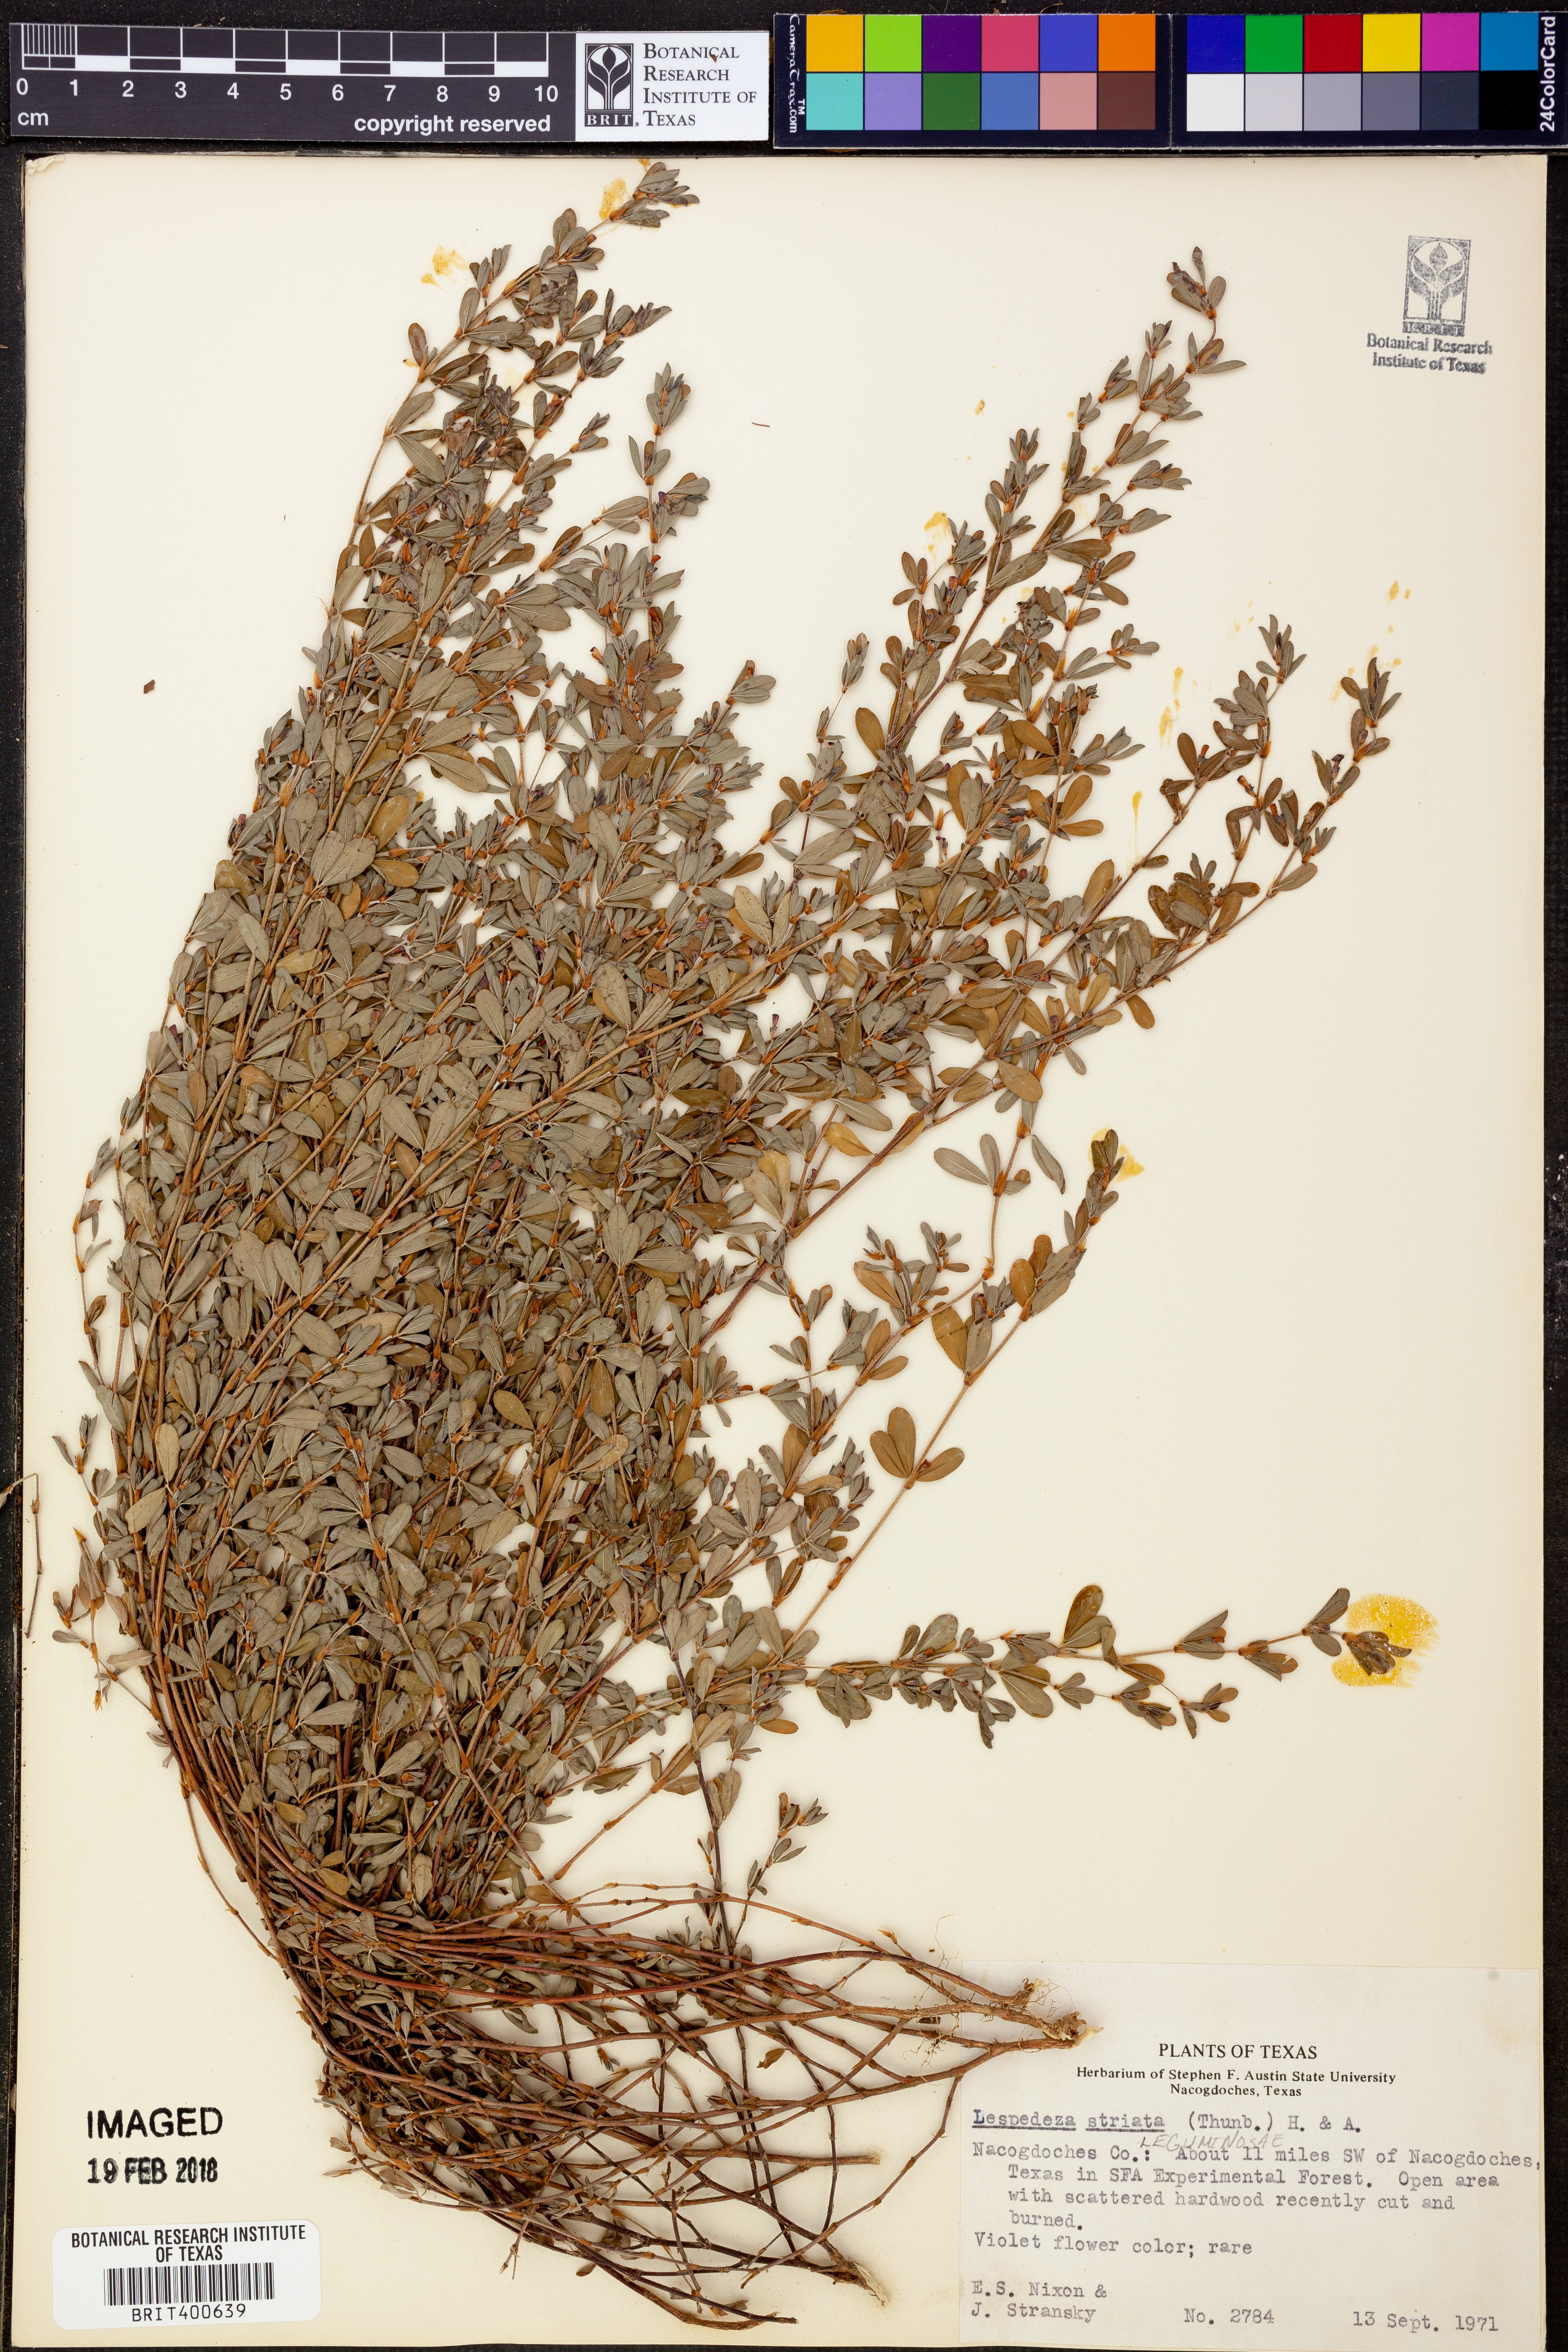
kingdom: Plantae
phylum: Tracheophyta
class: Magnoliopsida
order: Fabales
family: Fabaceae
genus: Kummerowia
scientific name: Kummerowia striata
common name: Japanese clover
